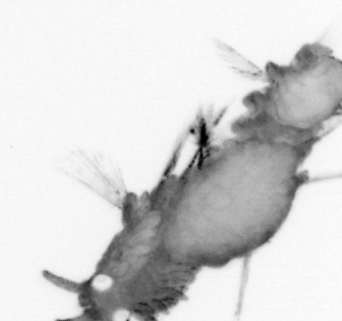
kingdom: Animalia
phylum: Annelida
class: Polychaeta
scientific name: Polychaeta
